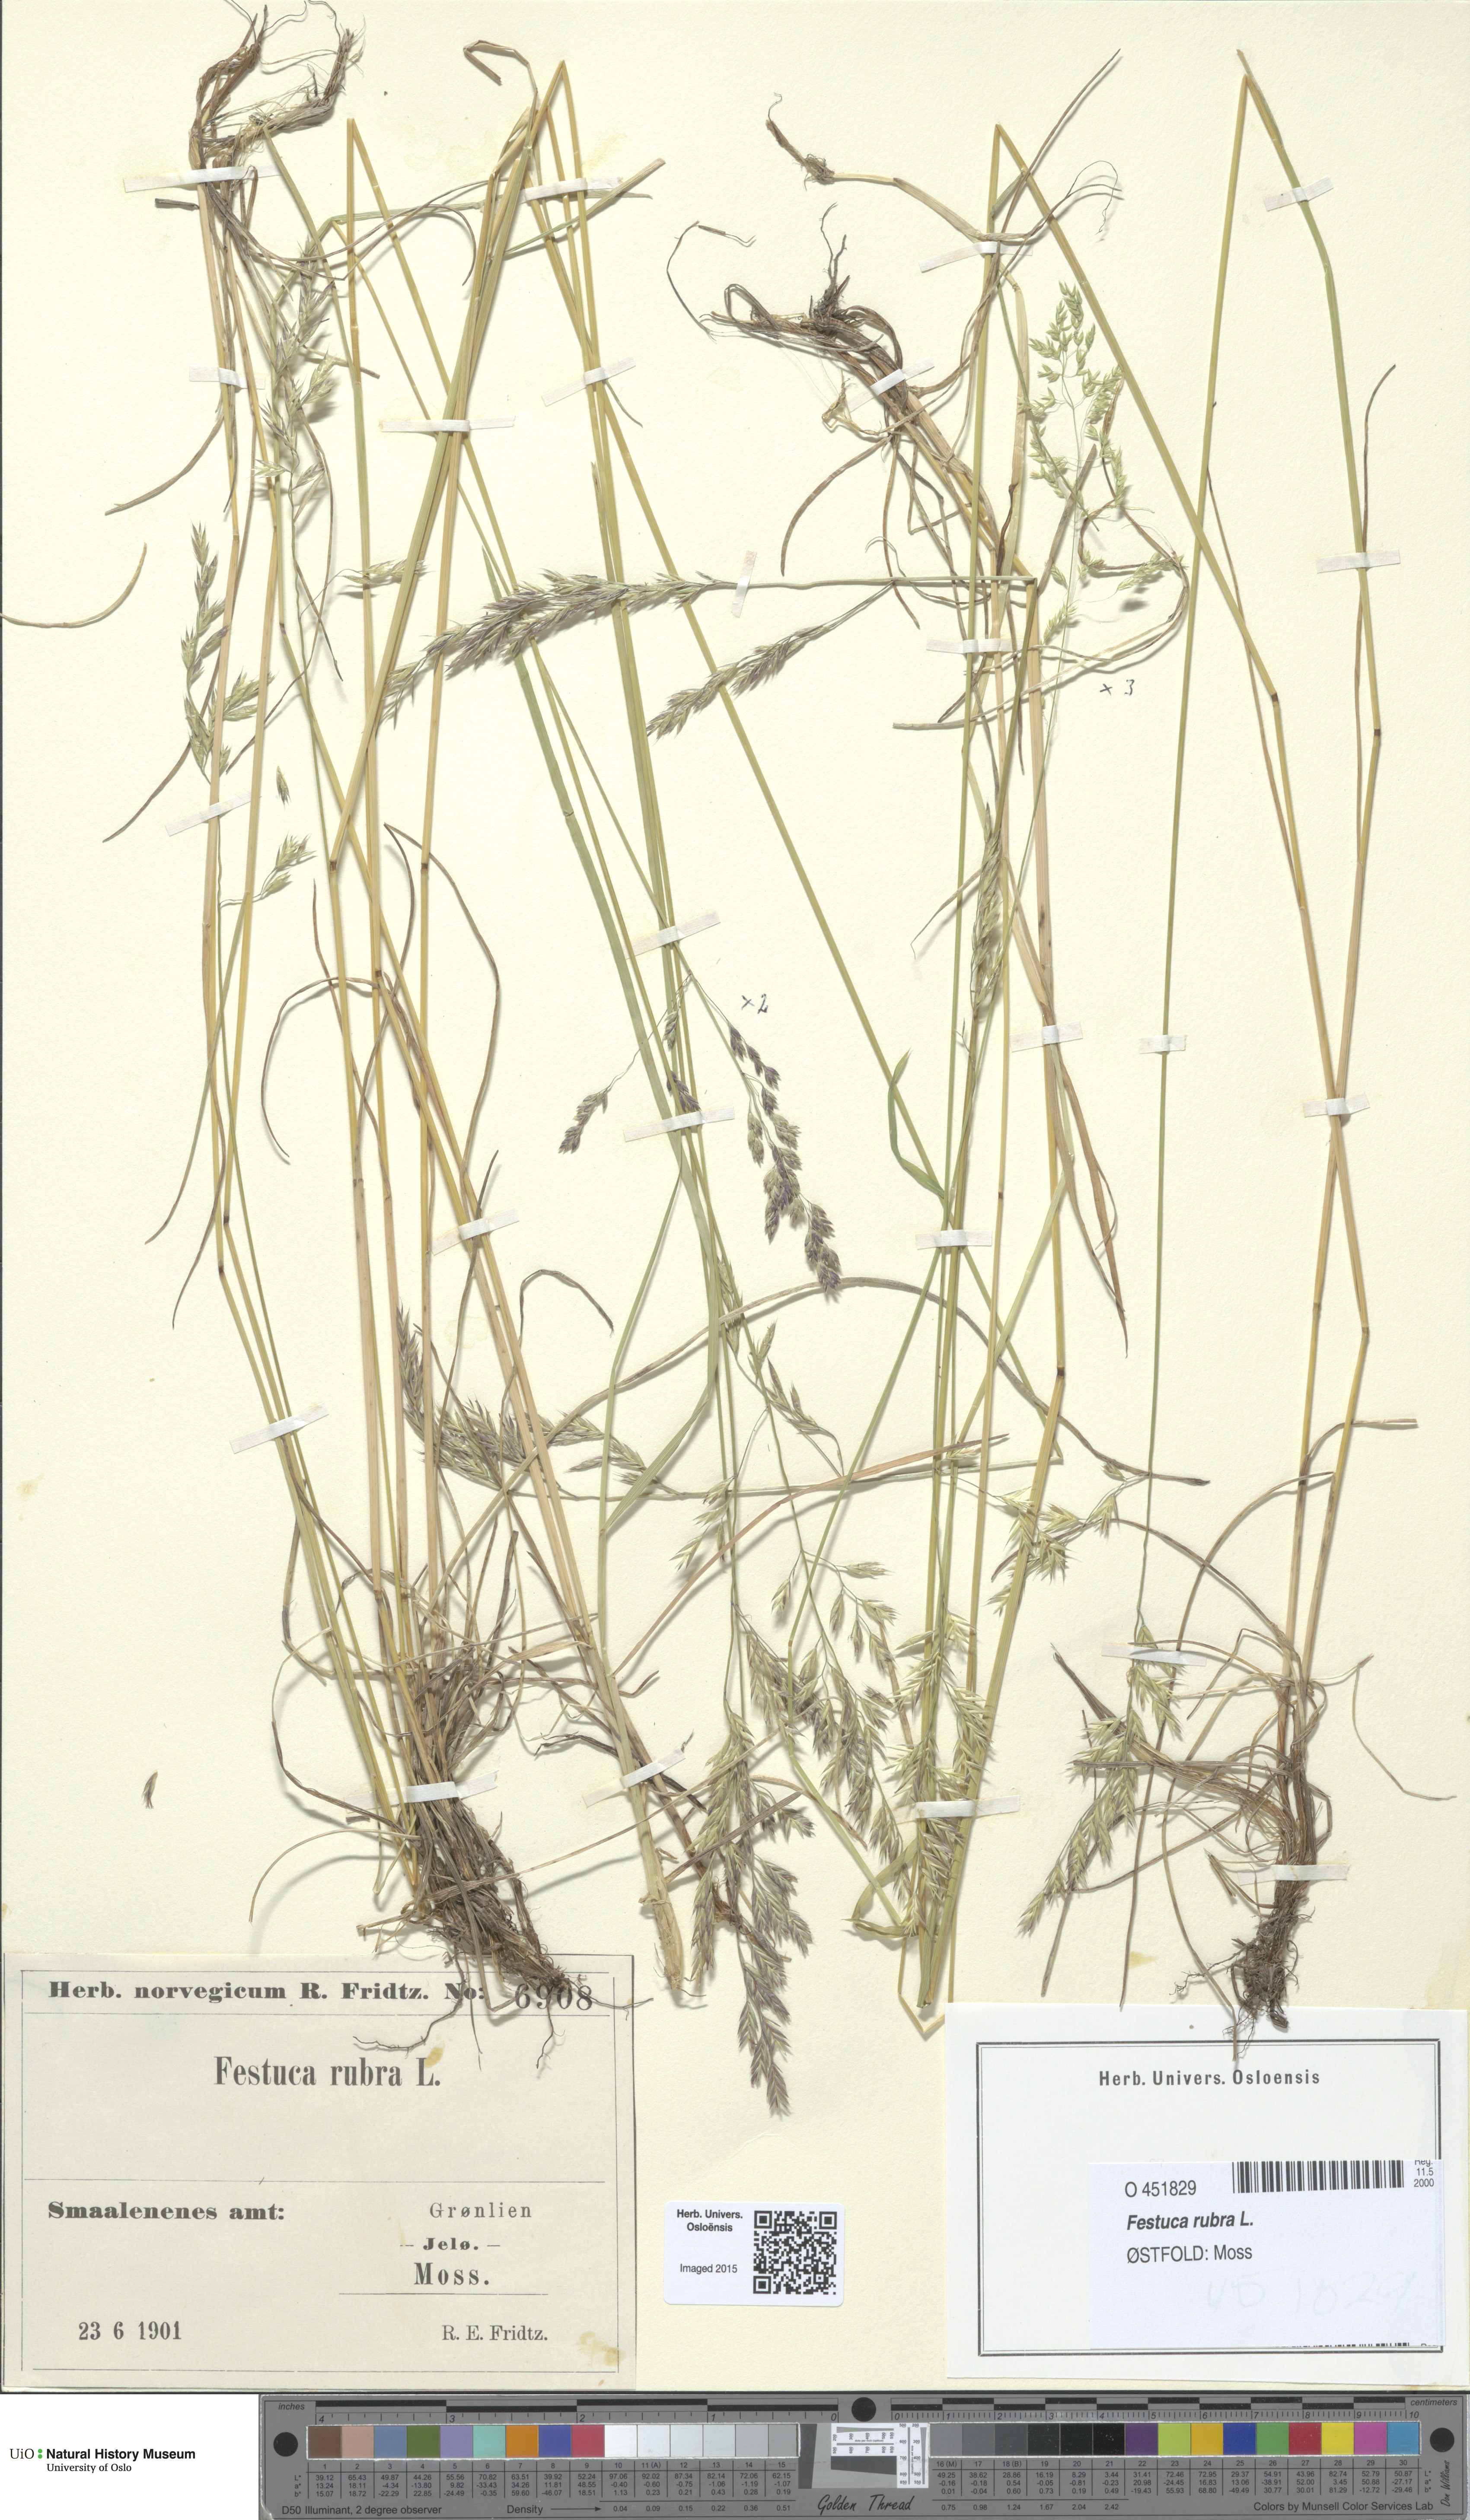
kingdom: Plantae
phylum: Tracheophyta
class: Liliopsida
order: Poales
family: Poaceae
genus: Festuca
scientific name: Festuca rubra
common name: Red fescue
